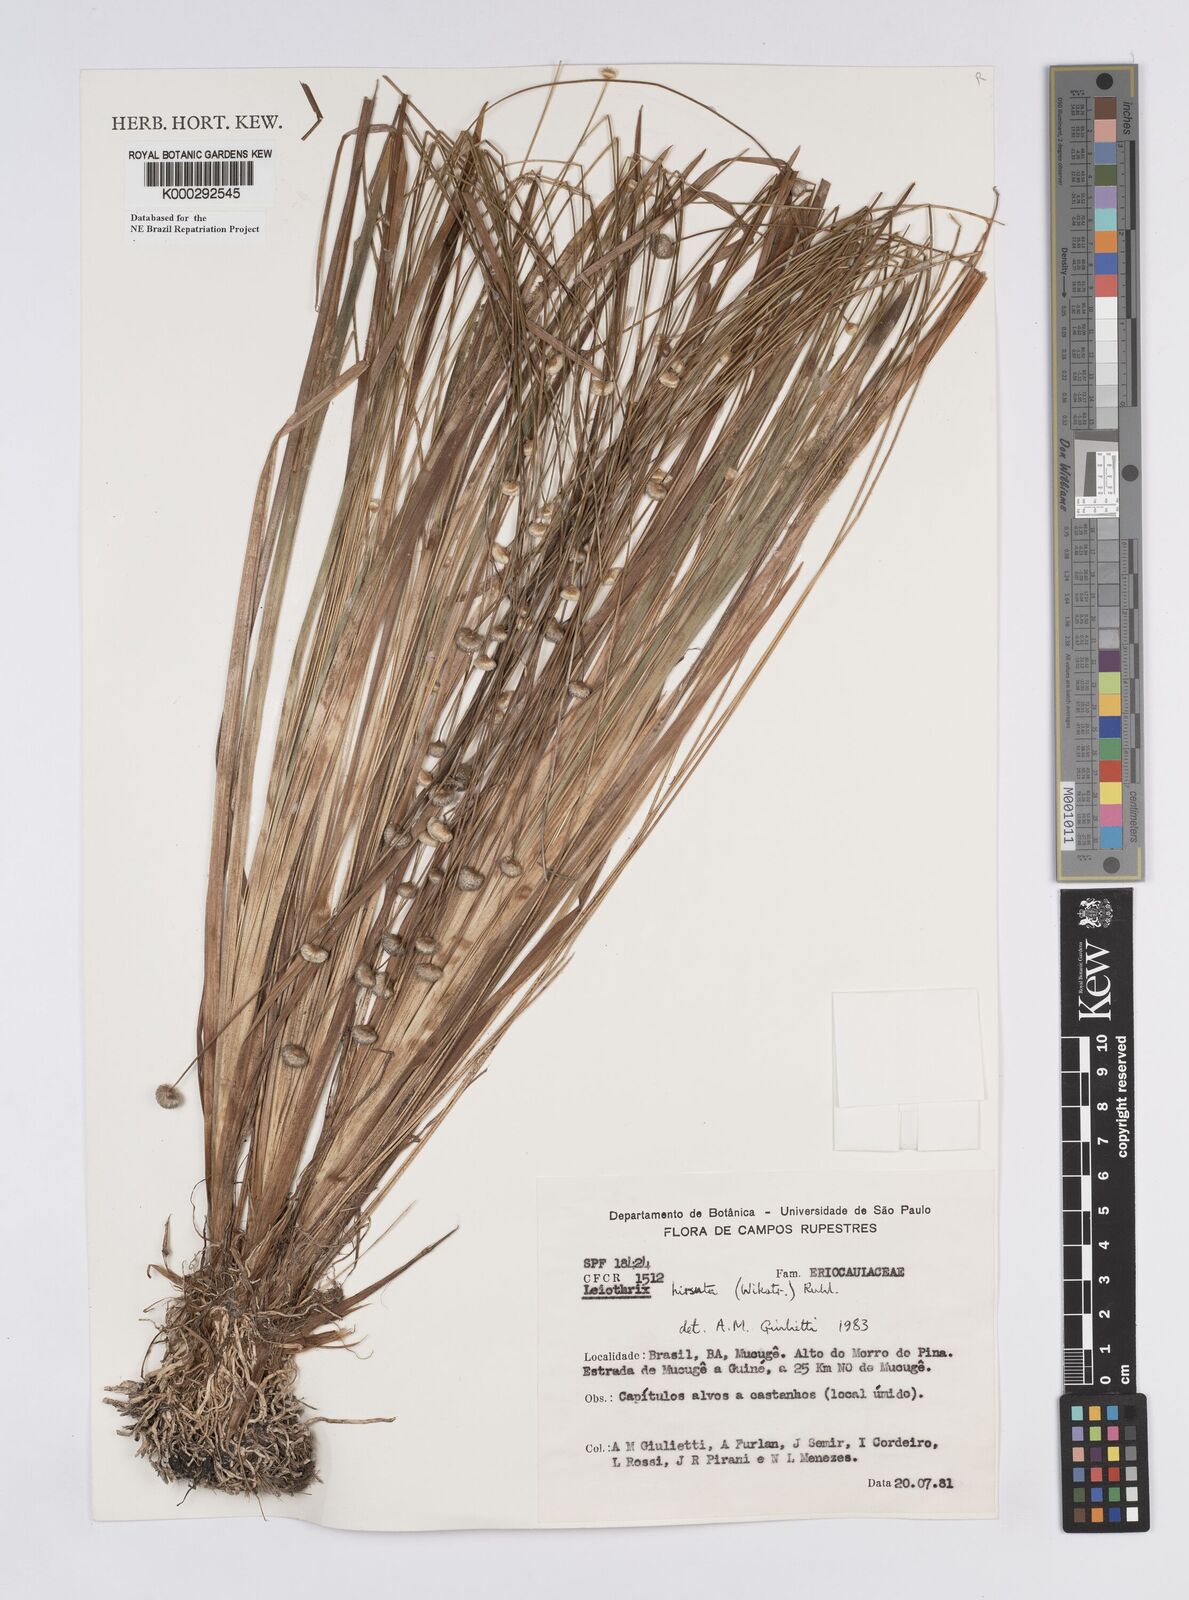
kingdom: Plantae
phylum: Tracheophyta
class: Liliopsida
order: Poales
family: Eriocaulaceae
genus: Leiothrix
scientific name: Leiothrix hirsuta
